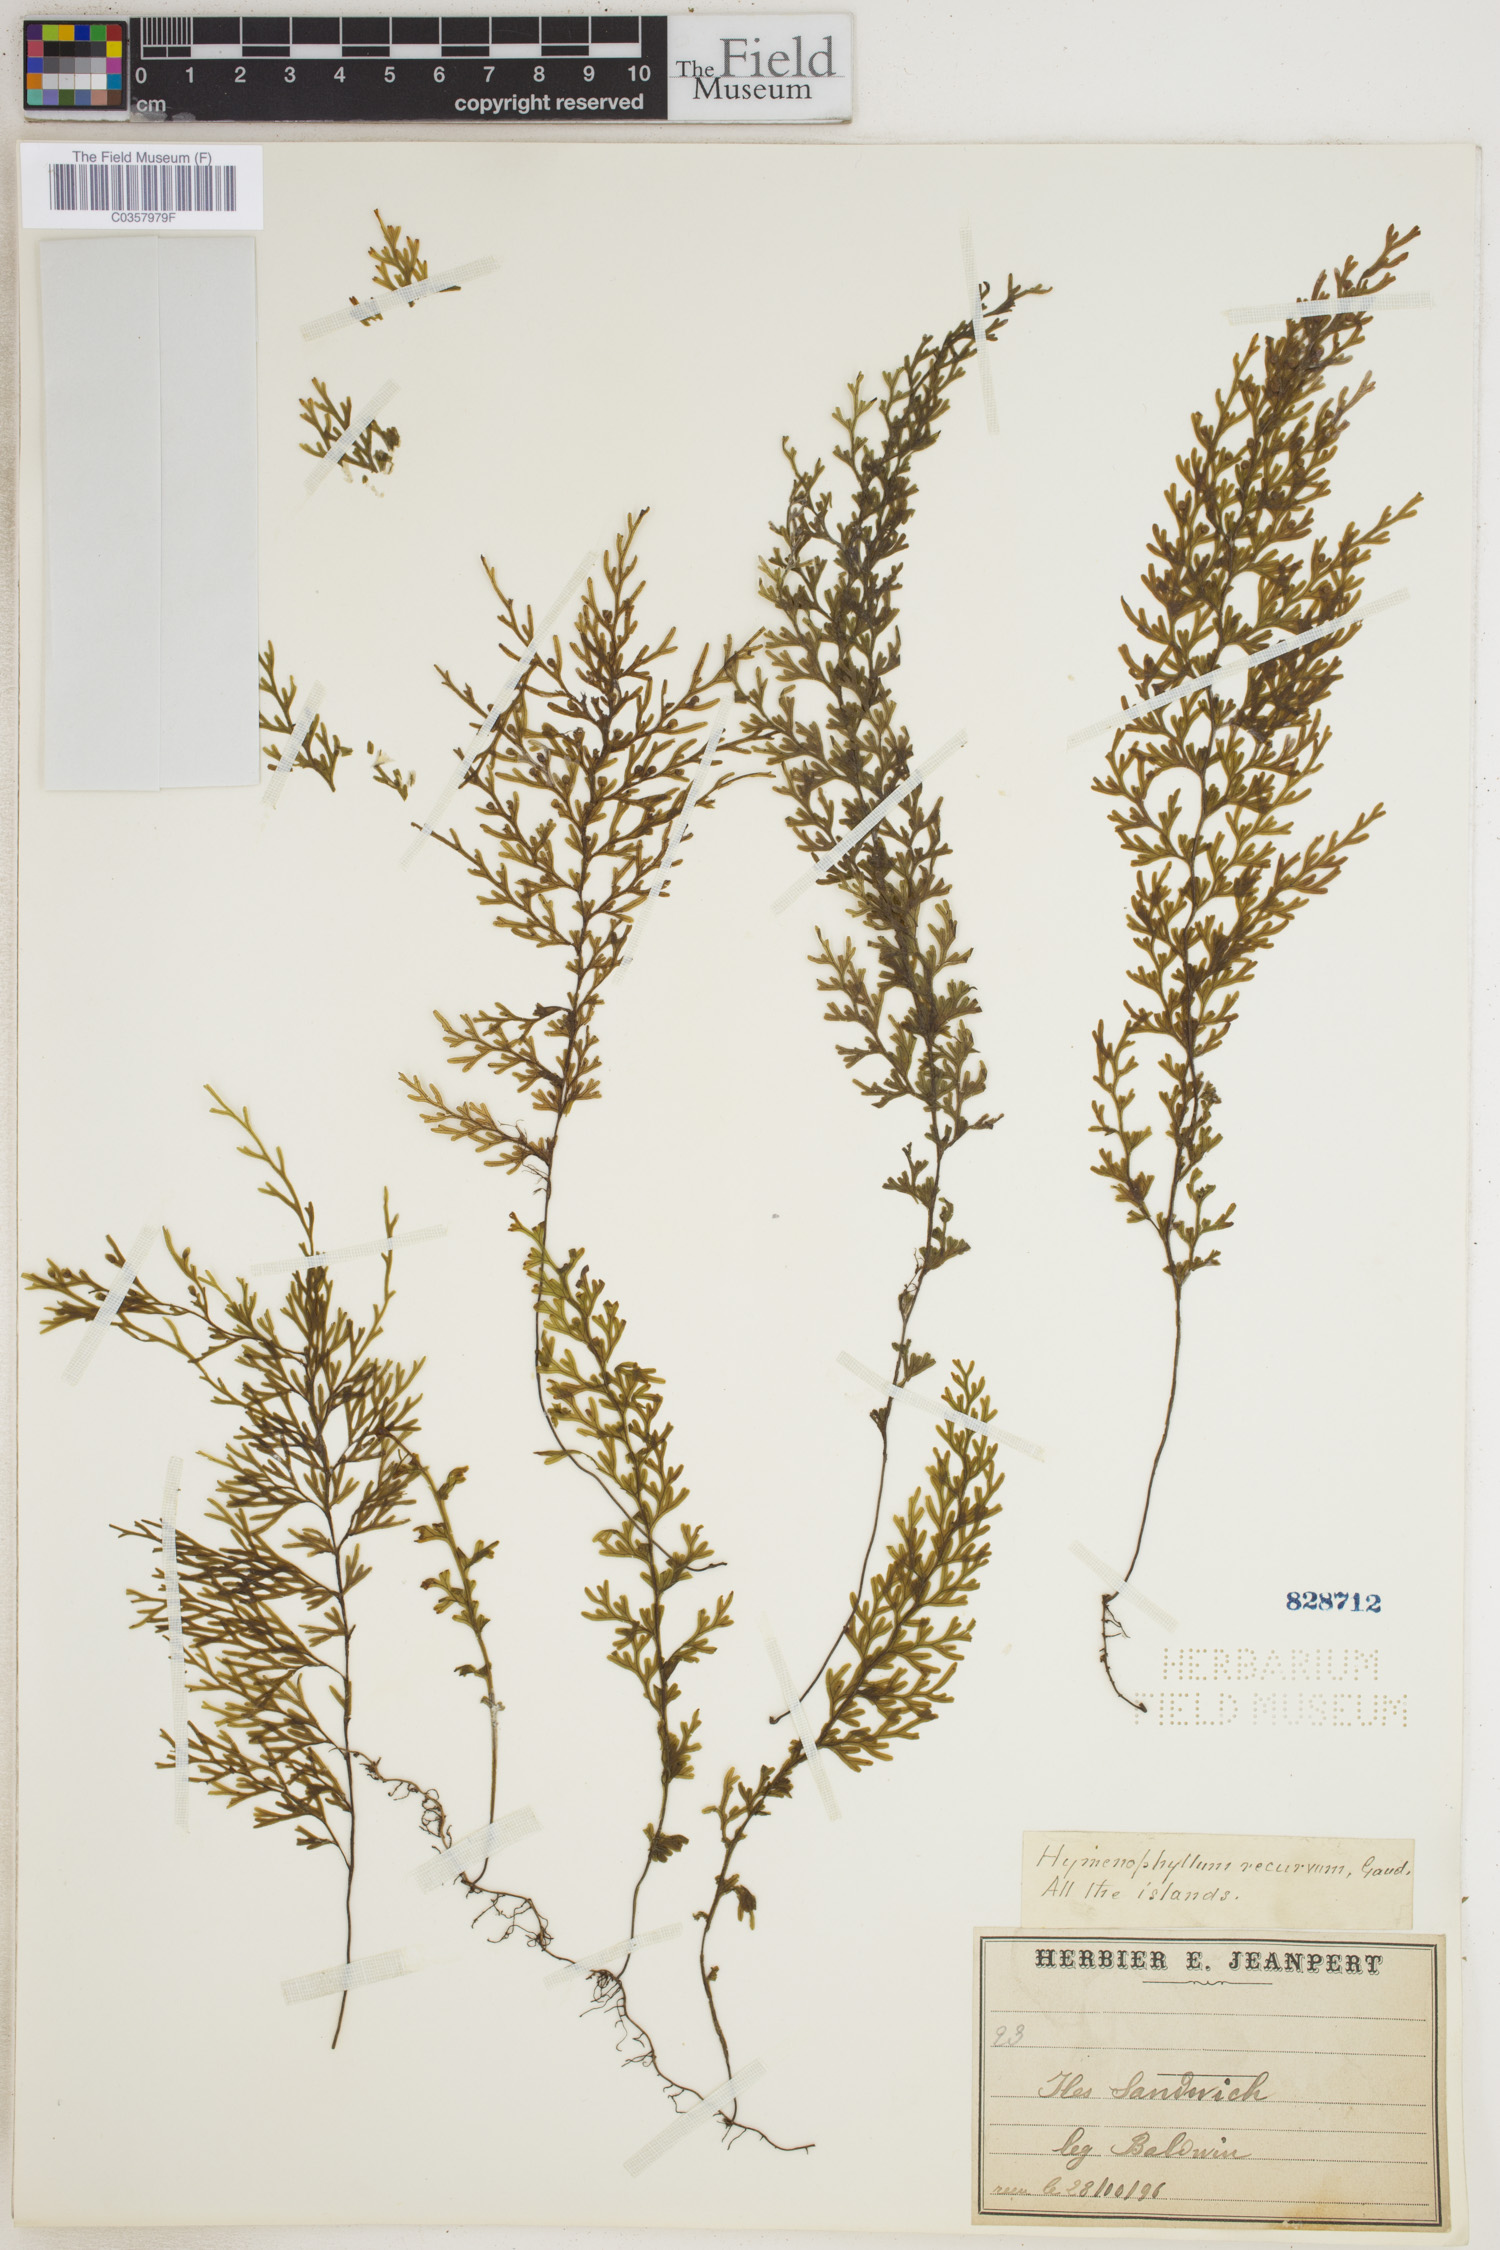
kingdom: Plantae
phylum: Tracheophyta
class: Polypodiopsida
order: Hymenophyllales
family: Hymenophyllaceae
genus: Hymenophyllum
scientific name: Hymenophyllum recurvum
